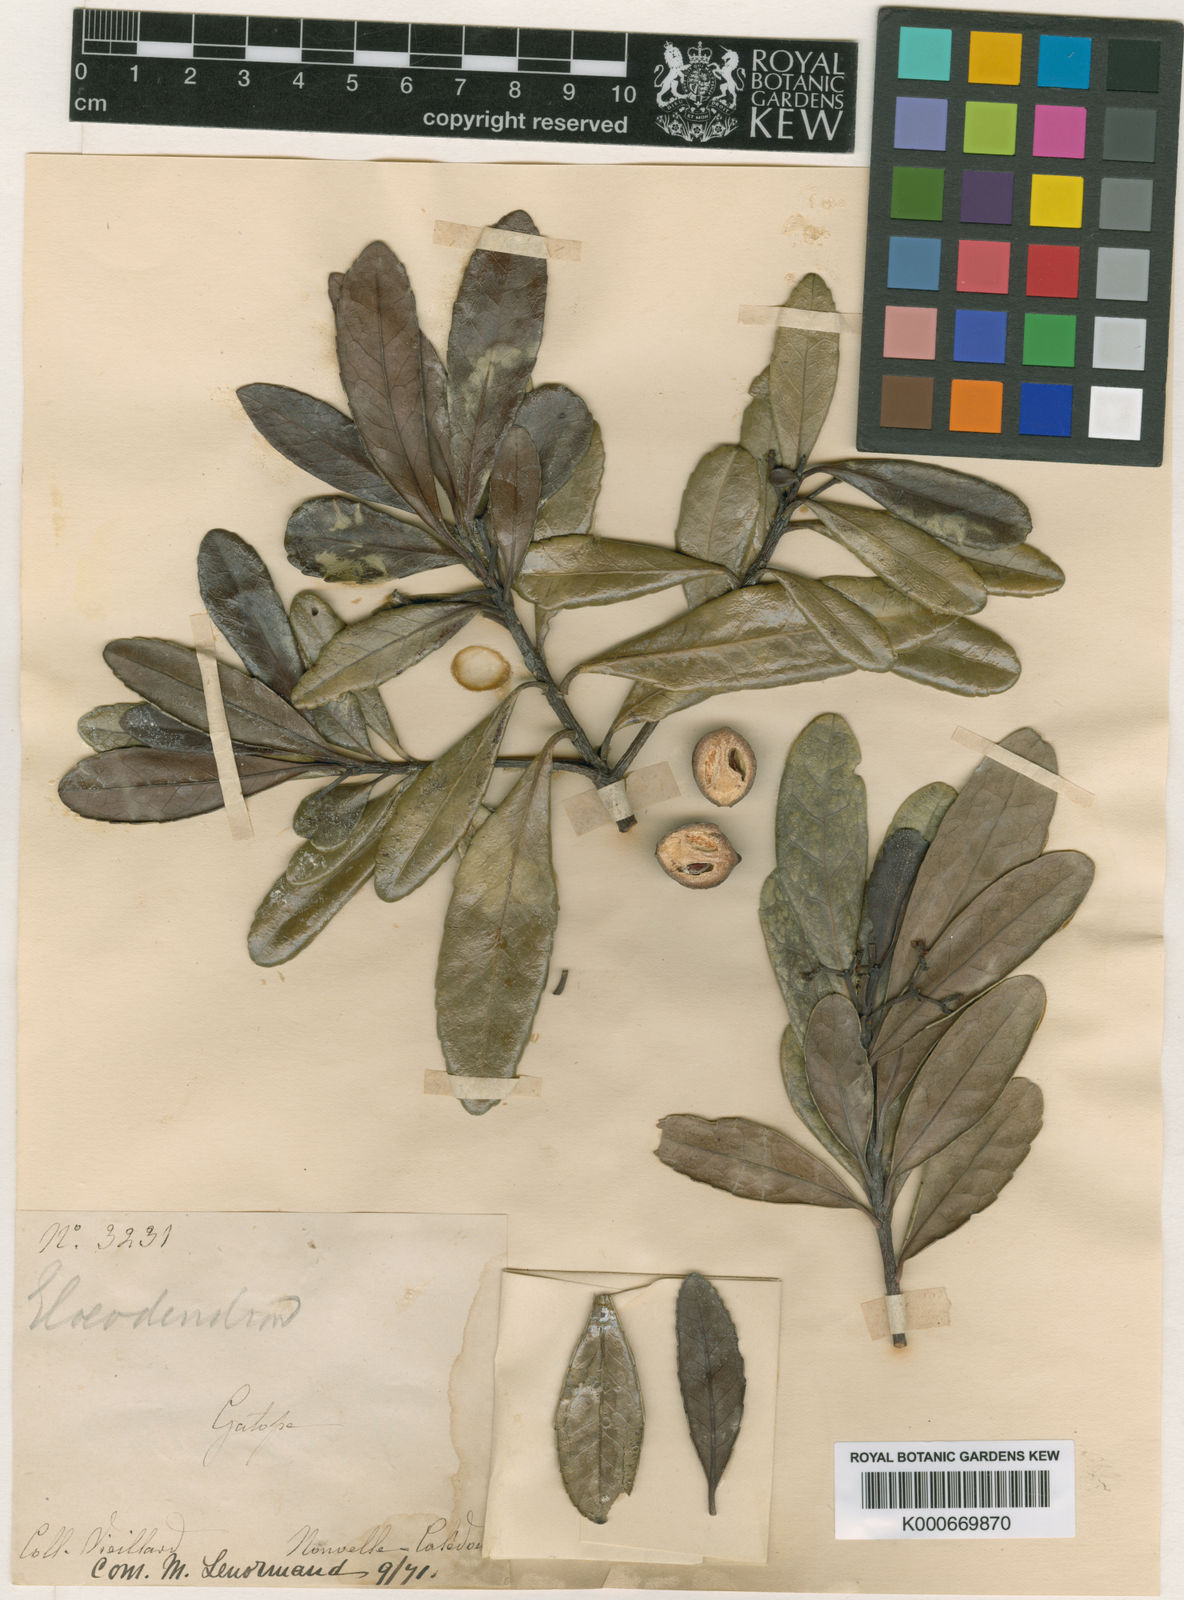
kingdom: Plantae
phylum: Tracheophyta
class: Magnoliopsida
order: Celastrales
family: Celastraceae
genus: Elaeodendron
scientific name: Elaeodendron brachycremastron
